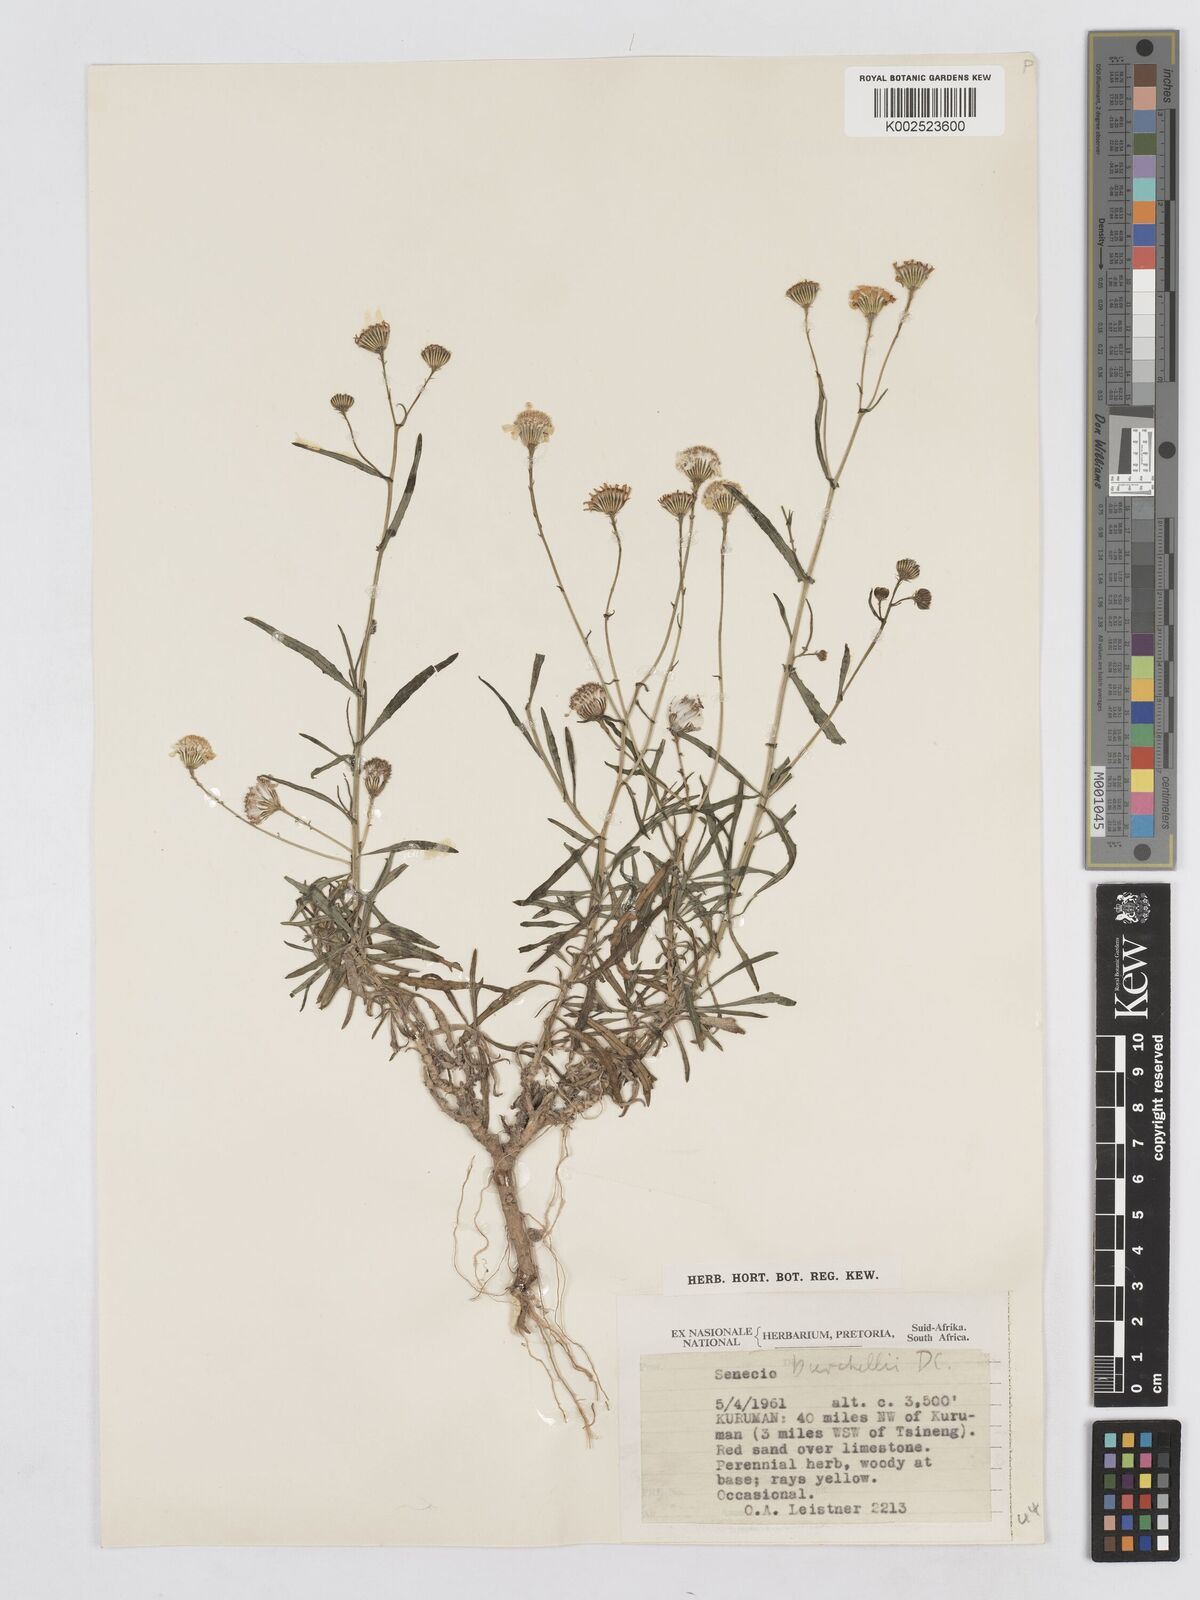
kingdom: Plantae
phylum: Tracheophyta
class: Magnoliopsida
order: Asterales
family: Asteraceae
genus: Senecio
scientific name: Senecio inaequidens
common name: Narrow-leaved ragwort
